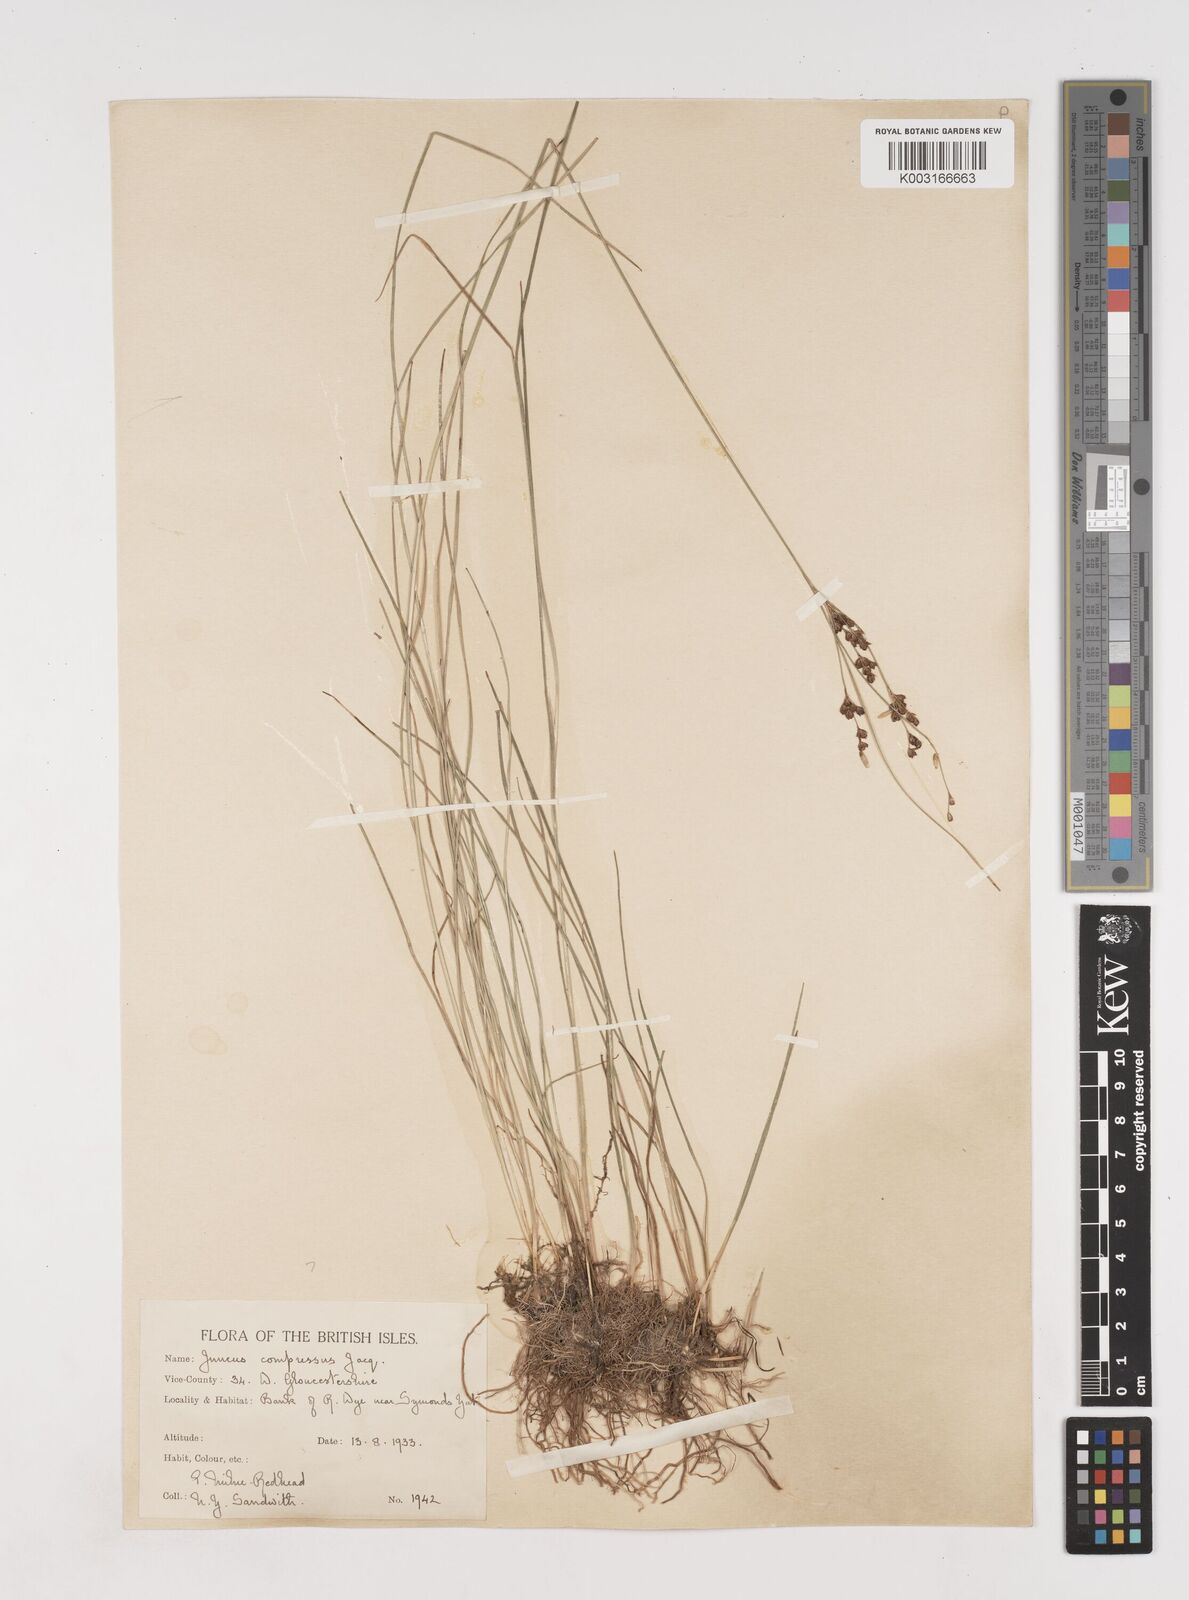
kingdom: Plantae
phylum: Tracheophyta
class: Liliopsida
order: Poales
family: Juncaceae
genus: Juncus
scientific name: Juncus compressus
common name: Round-fruited rush
